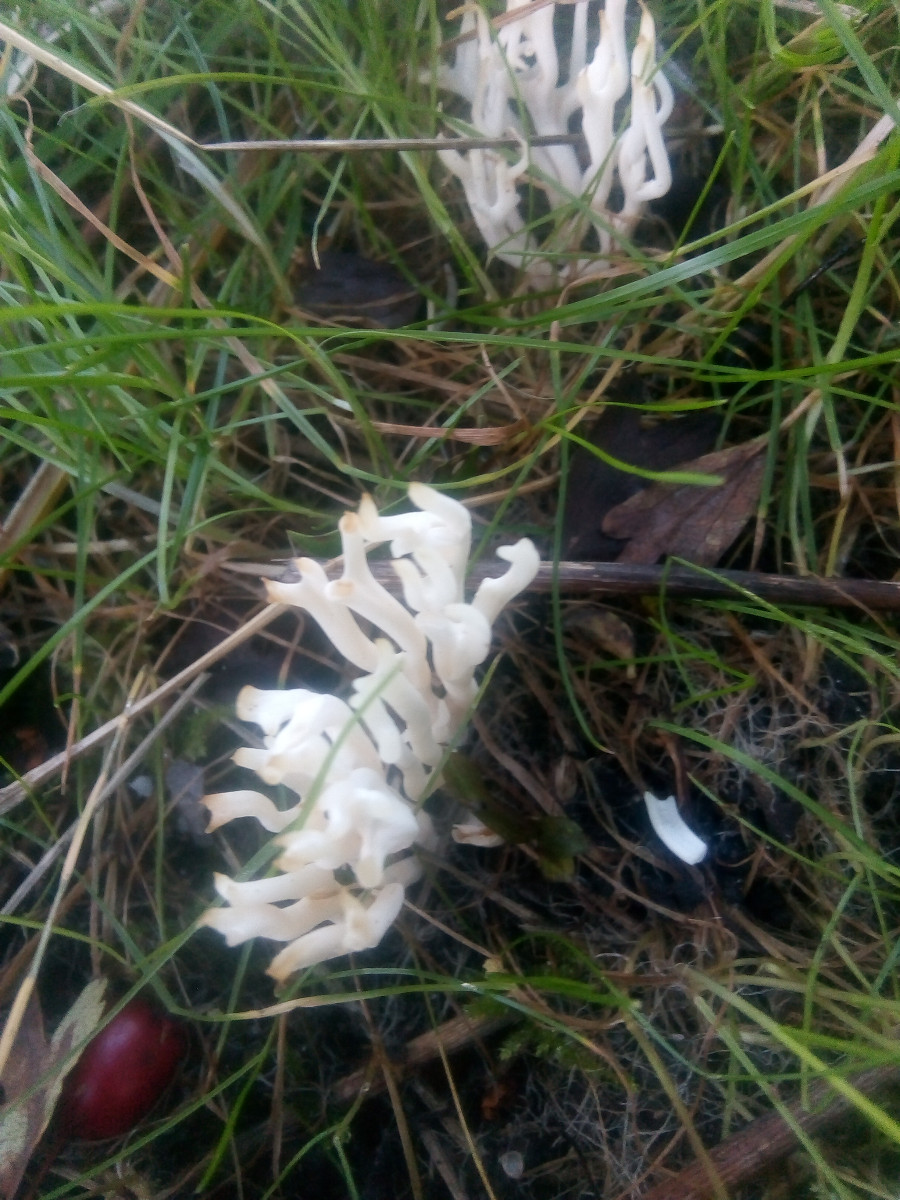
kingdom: Fungi
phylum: Basidiomycota
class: Agaricomycetes
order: Agaricales
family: Clavariaceae
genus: Ramariopsis
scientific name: Ramariopsis kunzei
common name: mangegrenet køllesvamp
